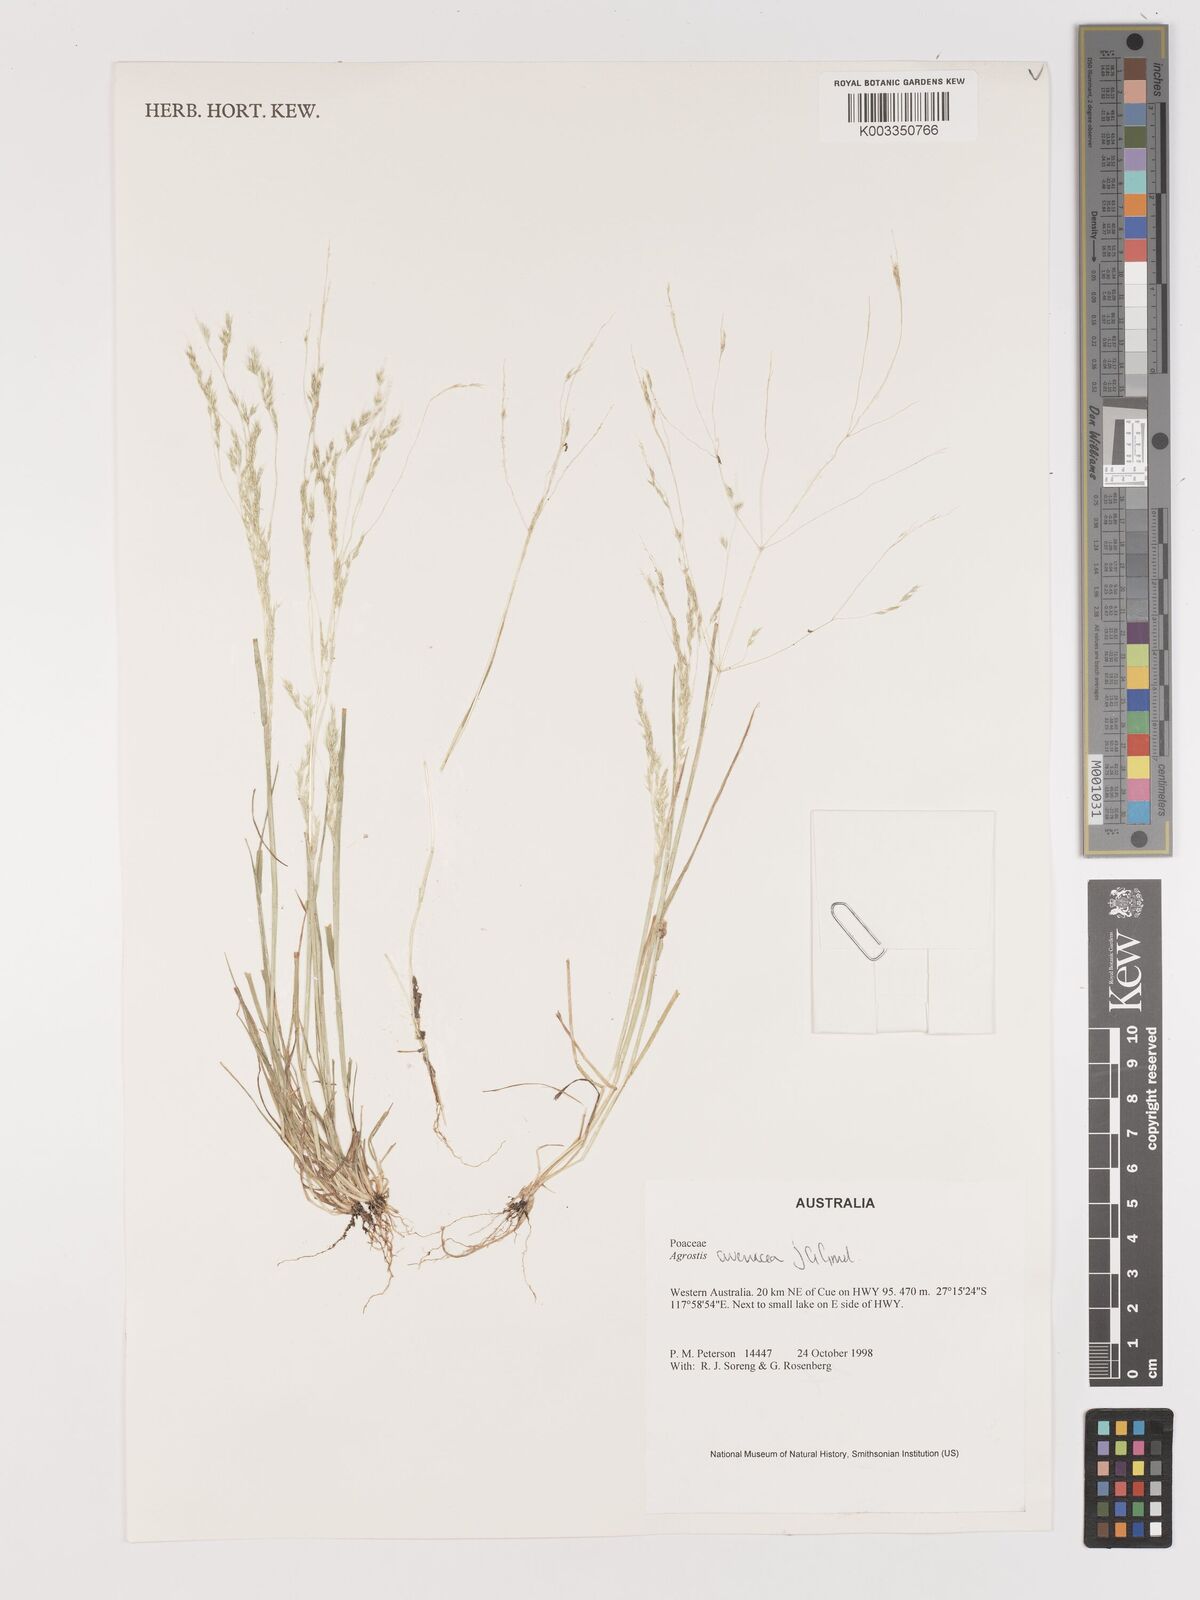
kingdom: Plantae
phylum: Tracheophyta
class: Liliopsida
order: Poales
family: Poaceae
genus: Lachnagrostis
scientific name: Lachnagrostis filiformis
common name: Bentgrass
